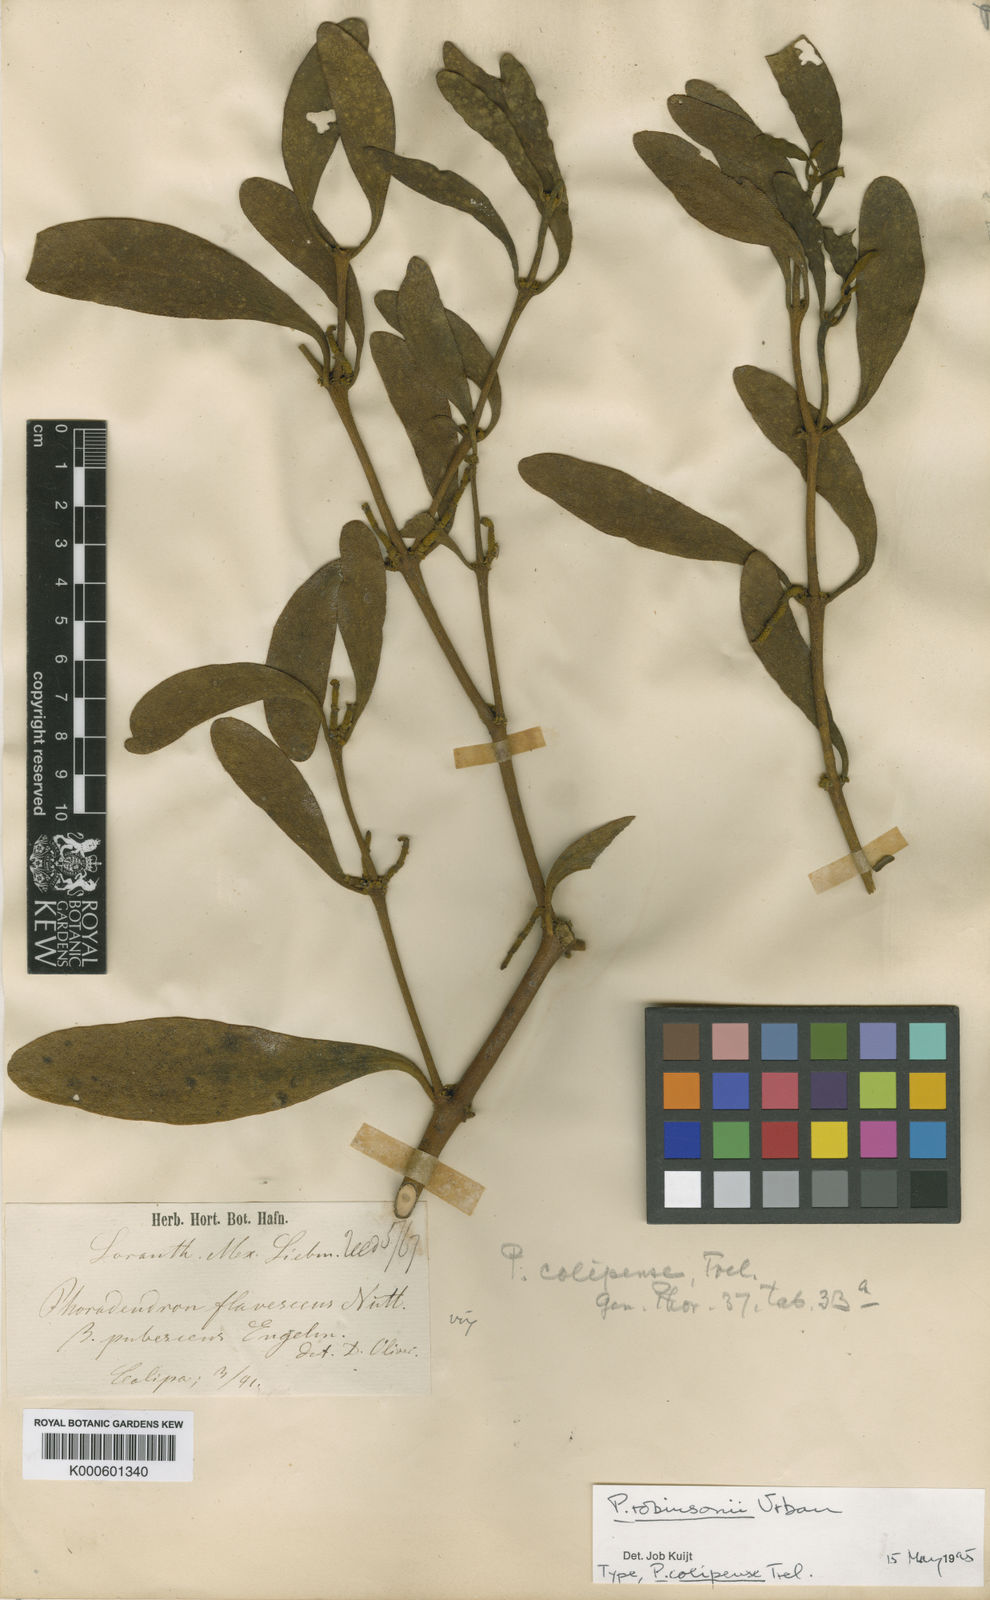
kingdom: Plantae
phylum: Tracheophyta
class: Magnoliopsida
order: Santalales
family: Viscaceae
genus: Phoradendron
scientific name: Phoradendron robinsonii
